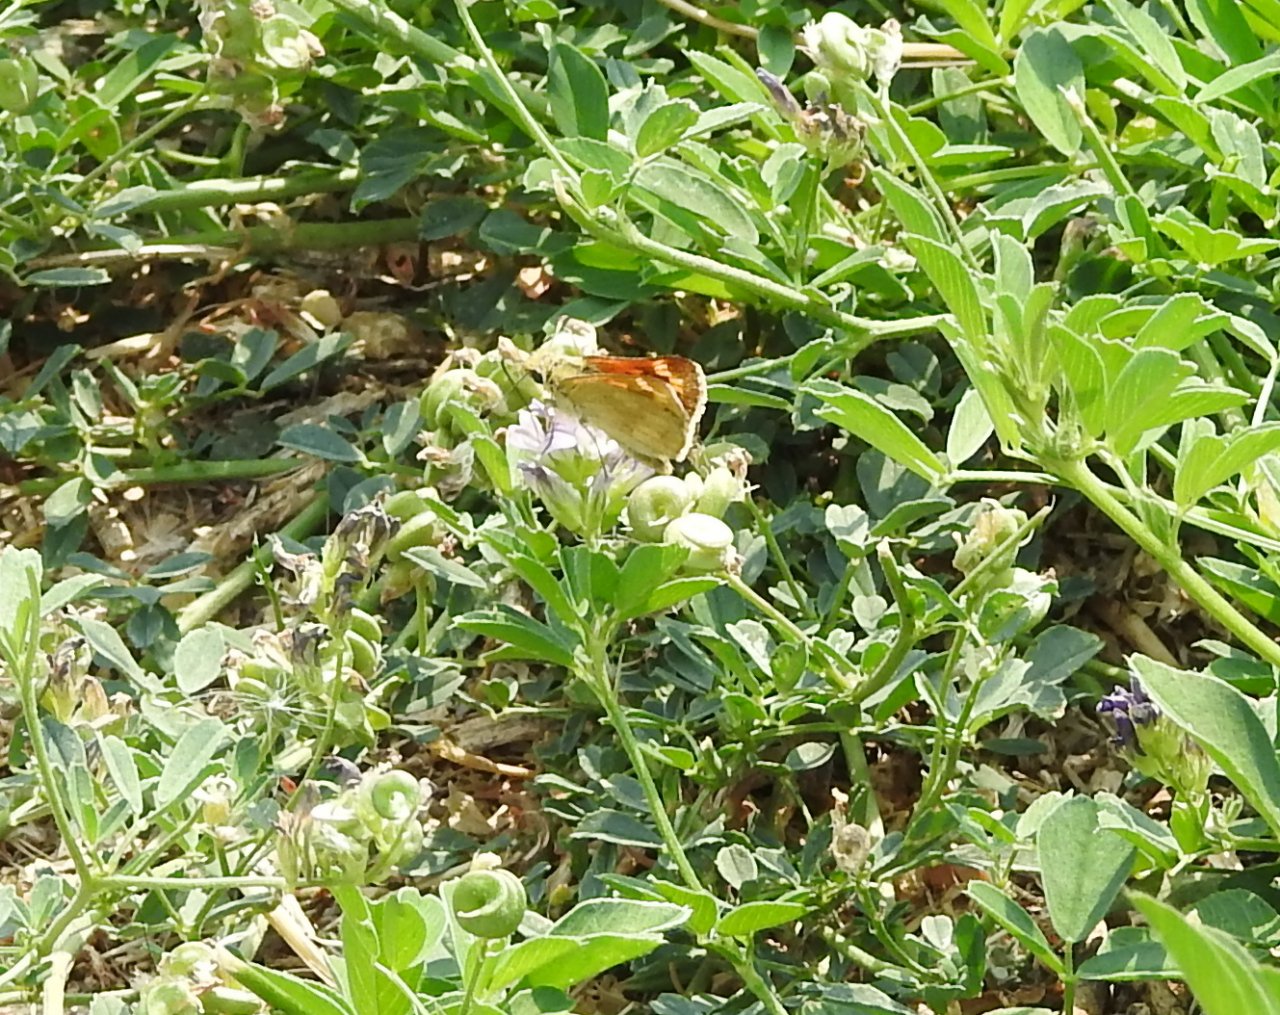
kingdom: Animalia
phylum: Arthropoda
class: Insecta
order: Lepidoptera
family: Hesperiidae
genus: Ochlodes
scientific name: Ochlodes sylvanoides
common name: Woodland Skipper
